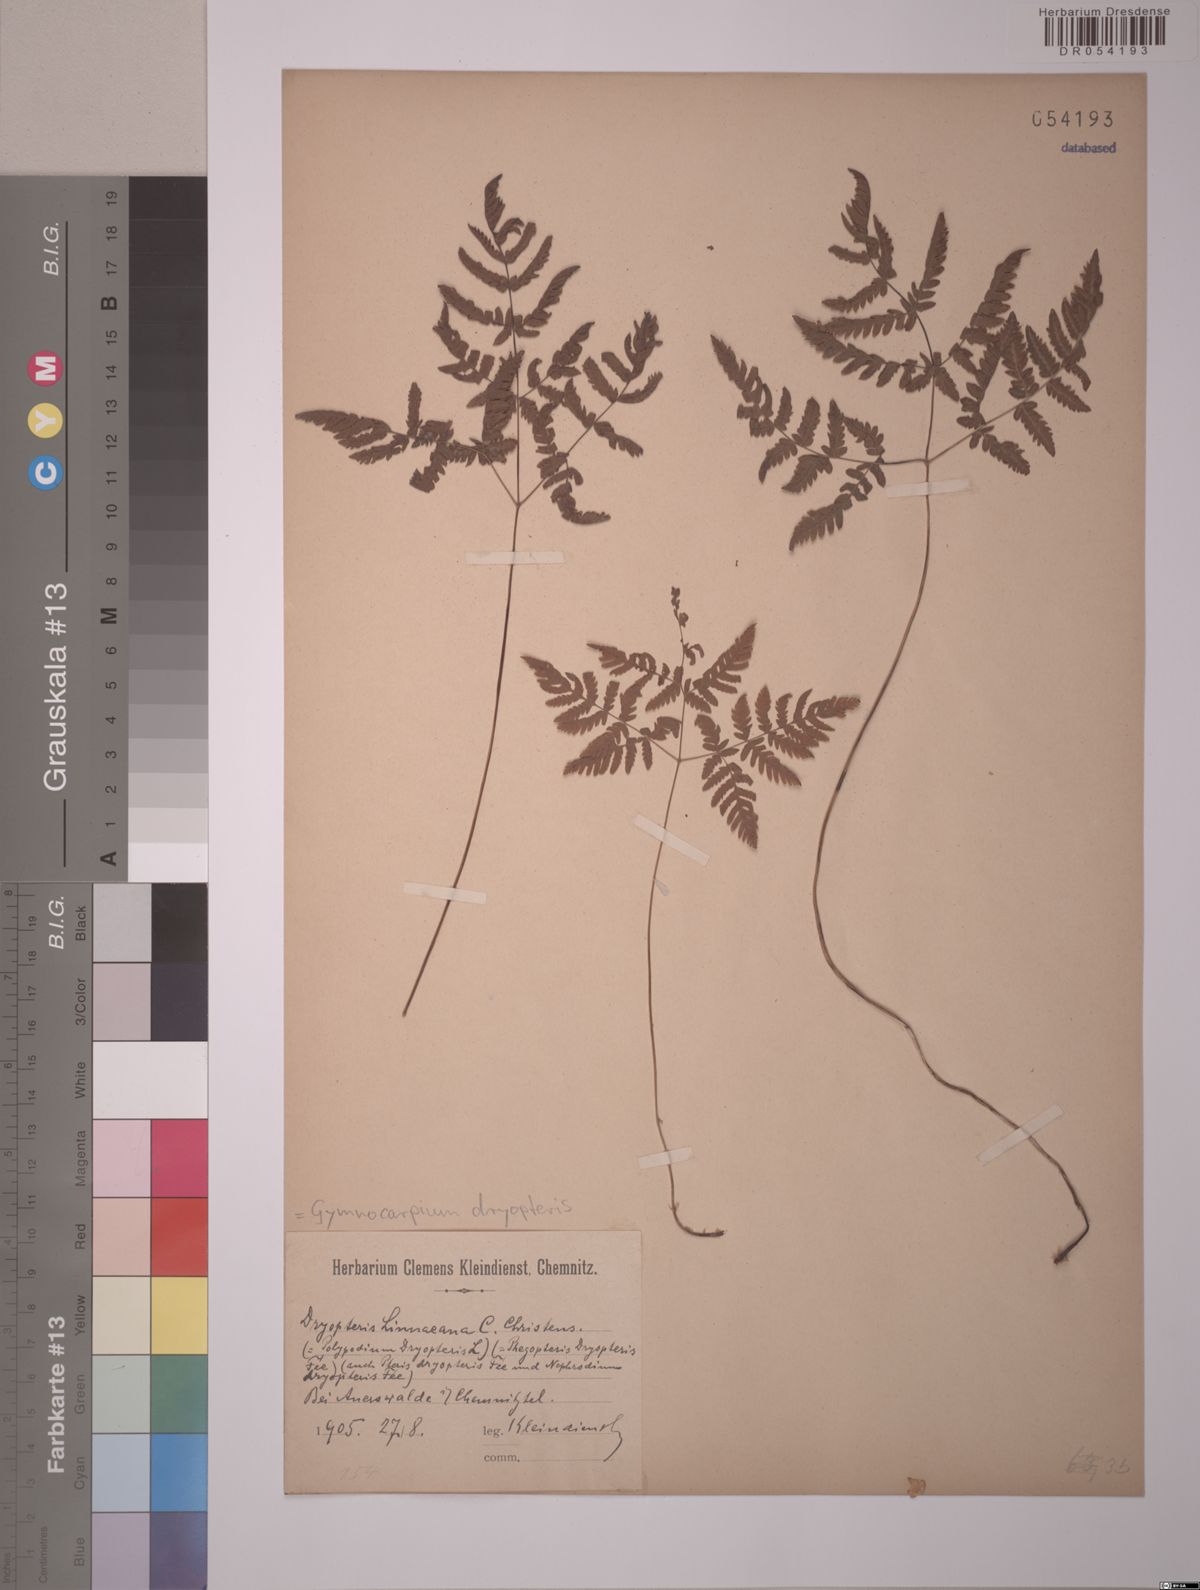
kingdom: Plantae
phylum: Tracheophyta
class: Polypodiopsida
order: Polypodiales
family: Cystopteridaceae
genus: Gymnocarpium
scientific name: Gymnocarpium dryopteris
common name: Oak fern
